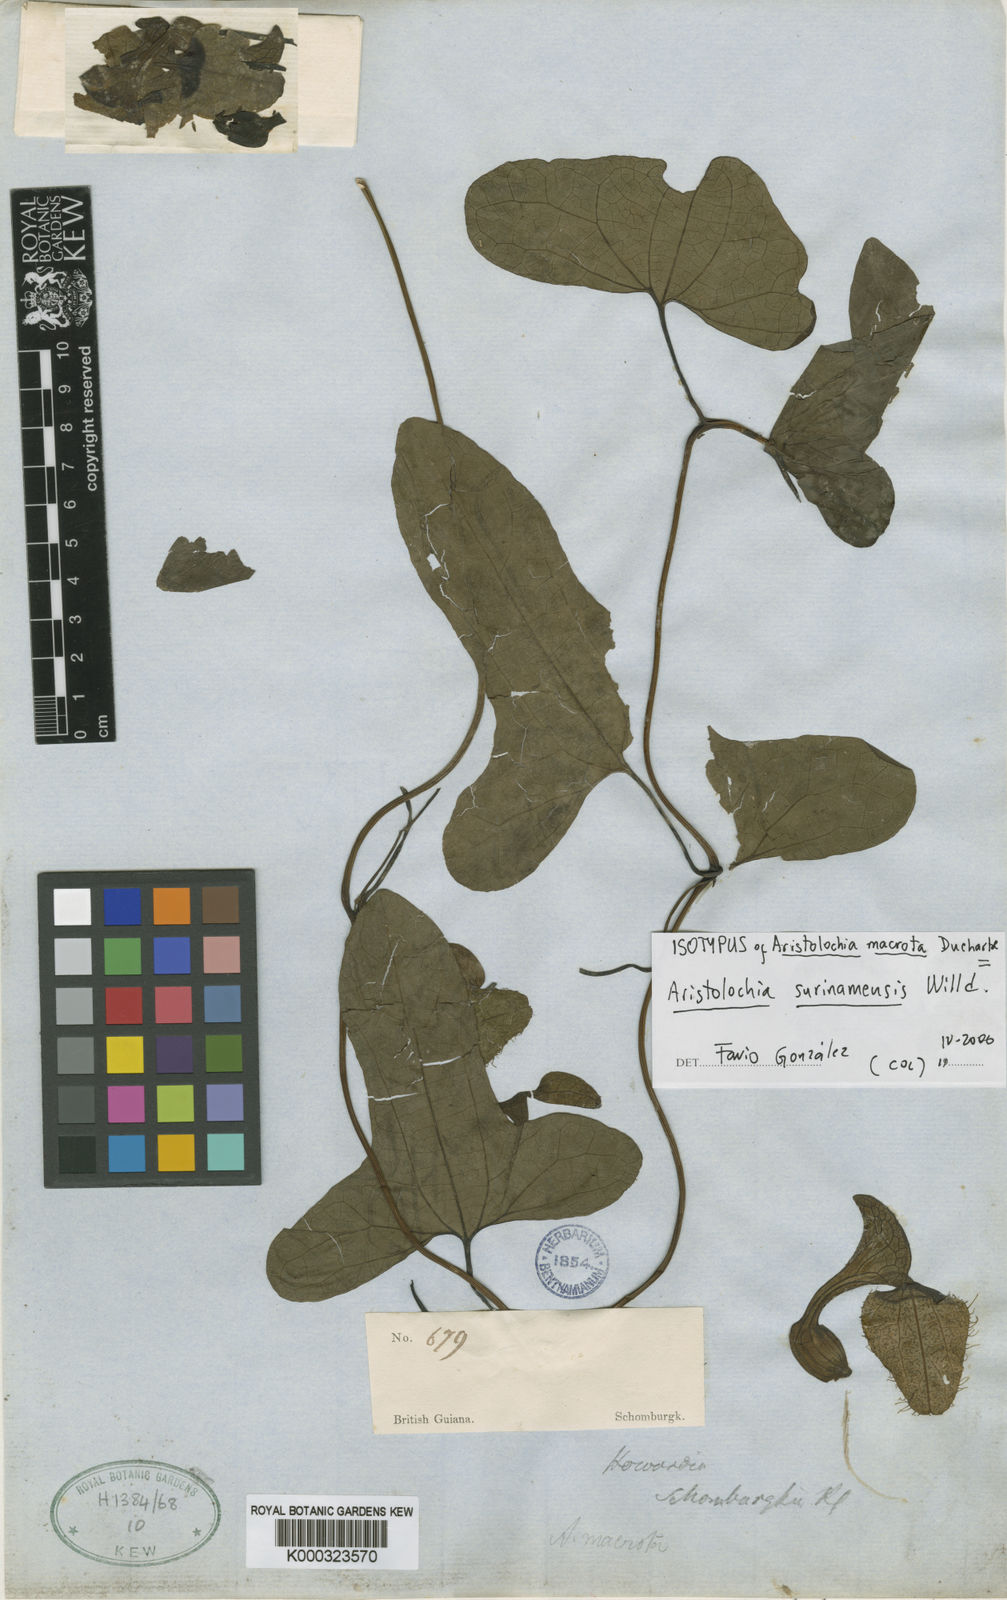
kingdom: Plantae
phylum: Tracheophyta
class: Magnoliopsida
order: Piperales
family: Aristolochiaceae
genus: Aristolochia
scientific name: Aristolochia
